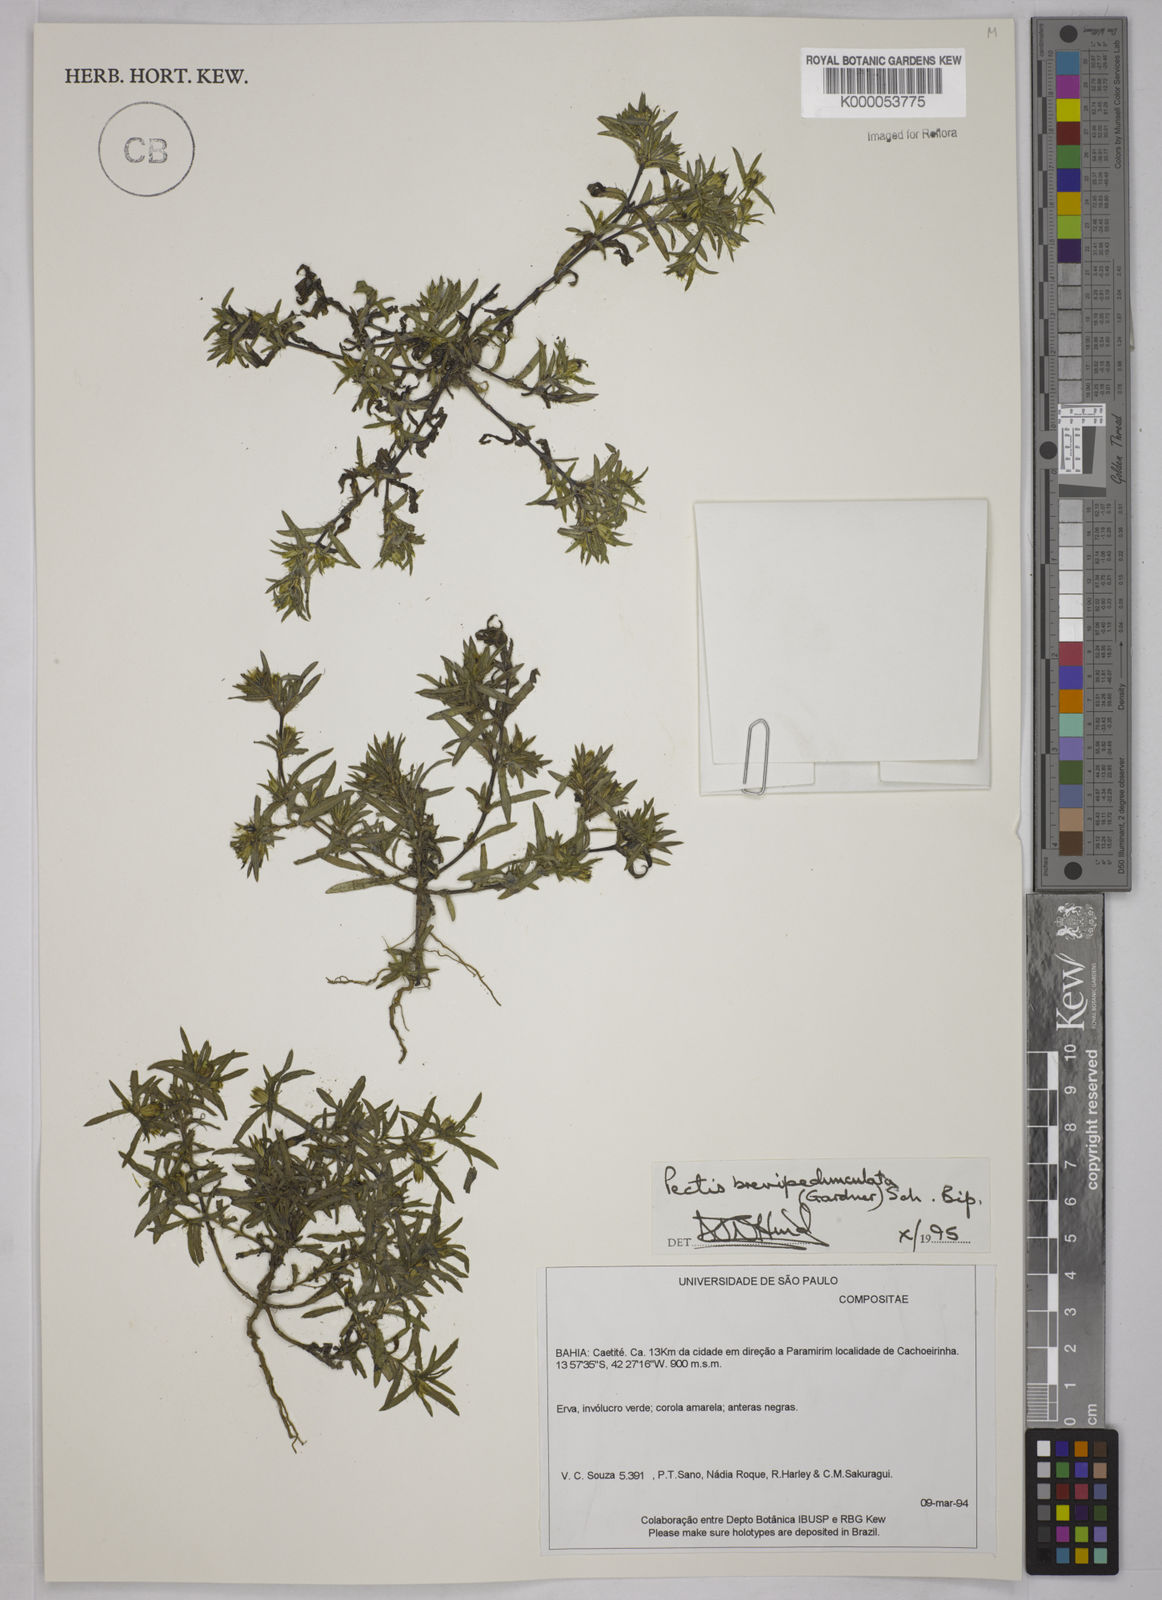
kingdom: Plantae
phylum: Tracheophyta
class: Magnoliopsida
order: Asterales
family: Asteraceae
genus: Pectis
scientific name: Pectis brevipedunculata
